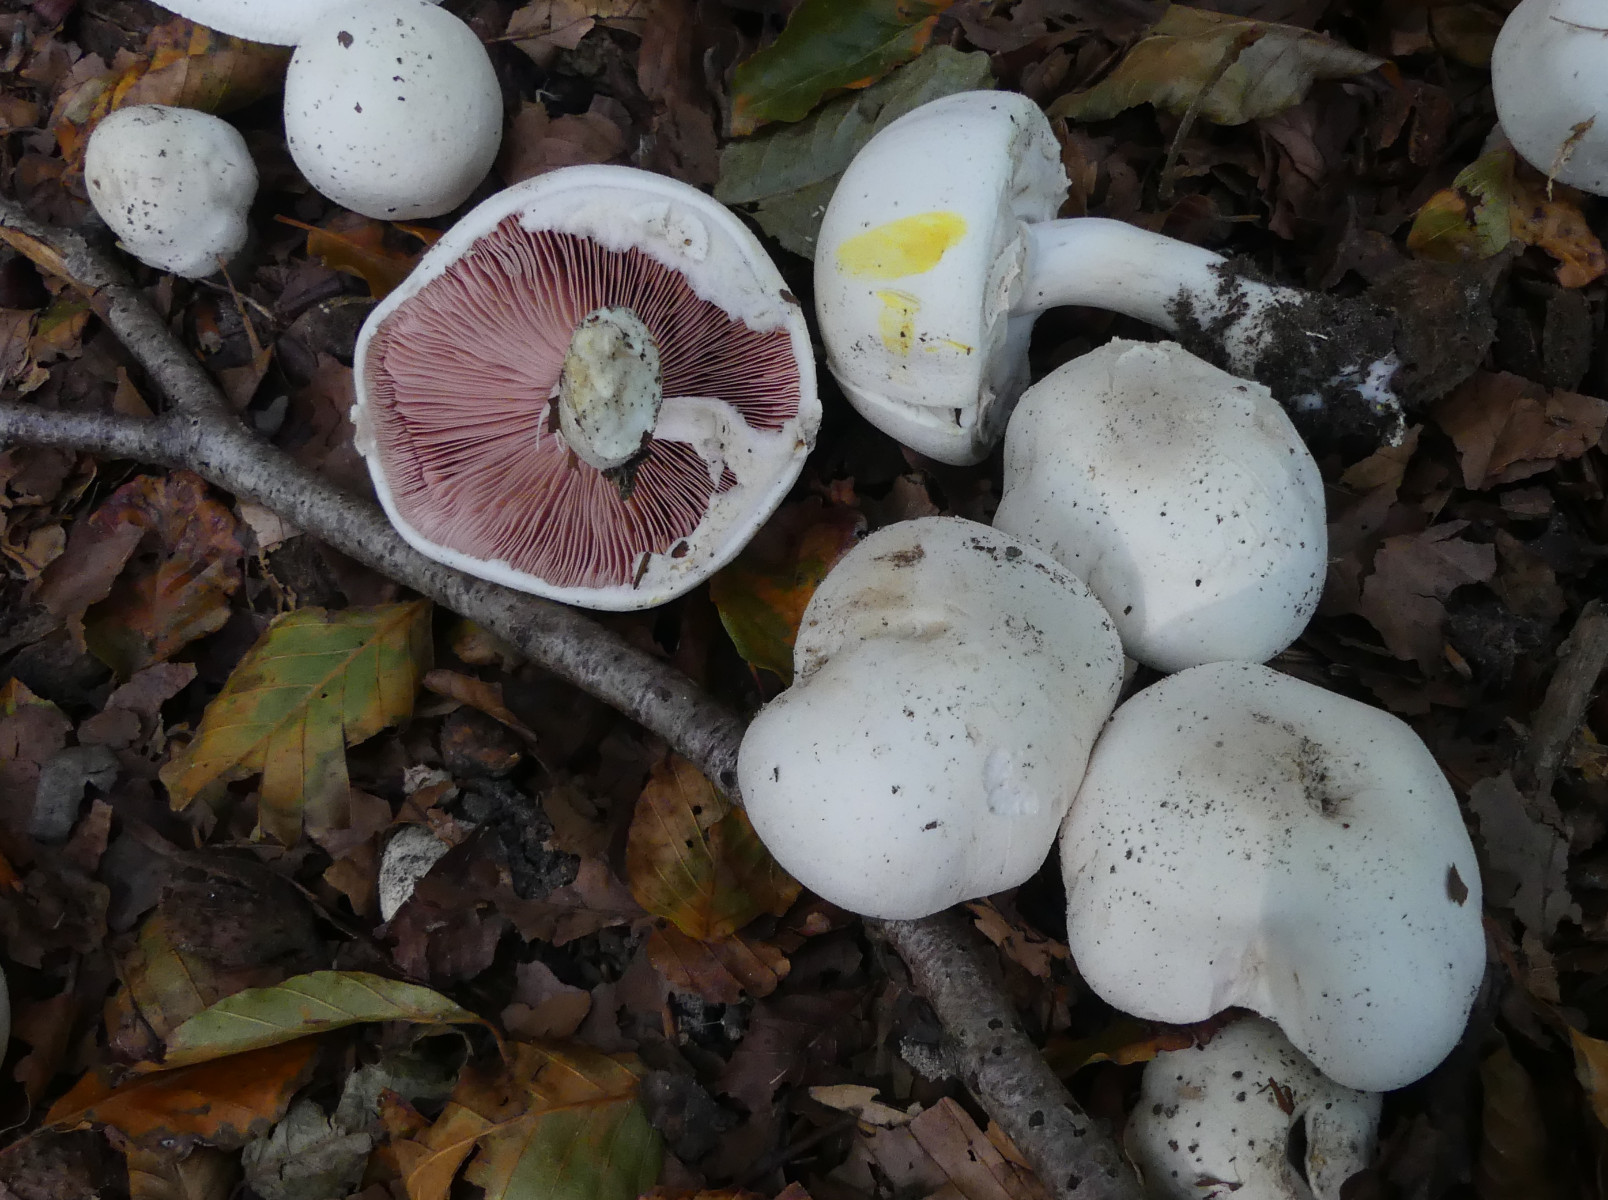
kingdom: Fungi
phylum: Basidiomycota
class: Agaricomycetes
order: Agaricales
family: Agaricaceae
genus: Agaricus
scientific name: Agaricus xanthodermus
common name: karbol-champignon
